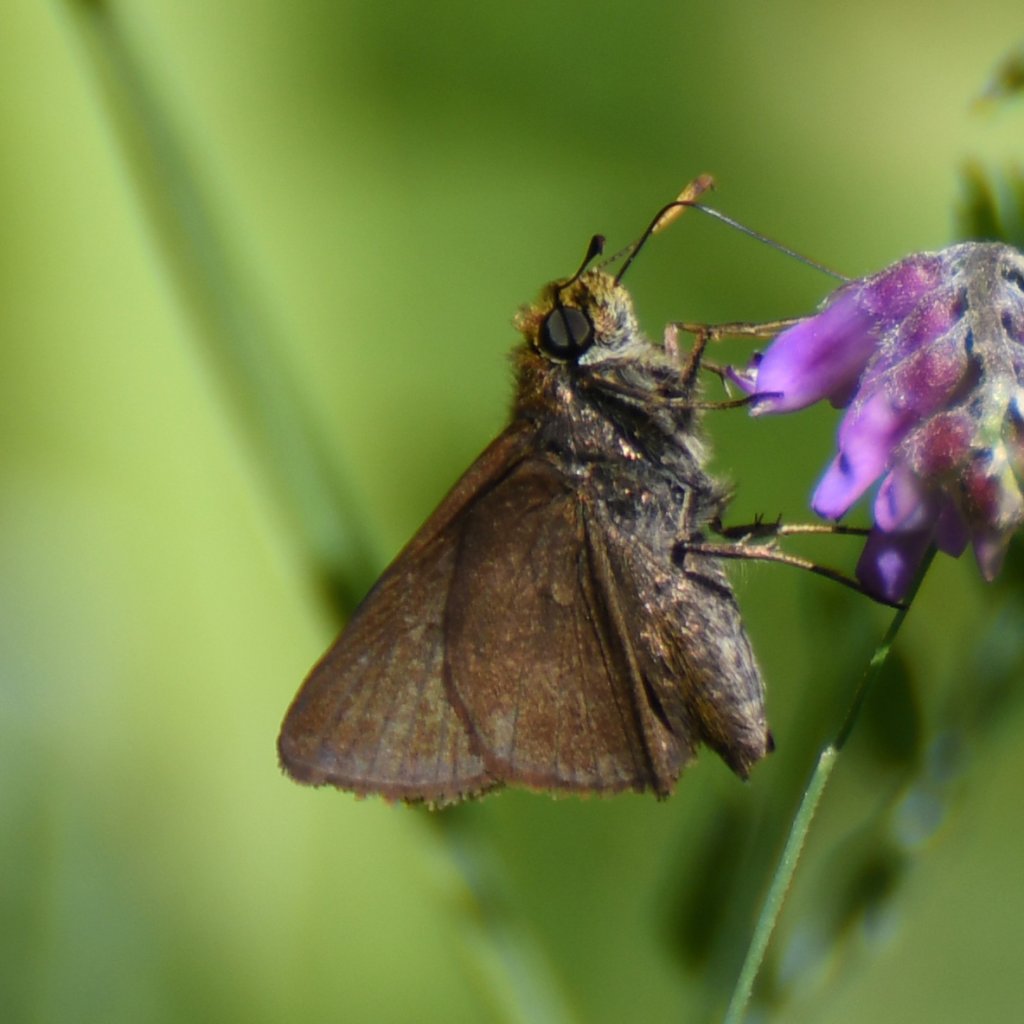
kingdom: Animalia
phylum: Arthropoda
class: Insecta
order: Lepidoptera
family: Hesperiidae
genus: Euphyes
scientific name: Euphyes vestris
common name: Dun Skipper
